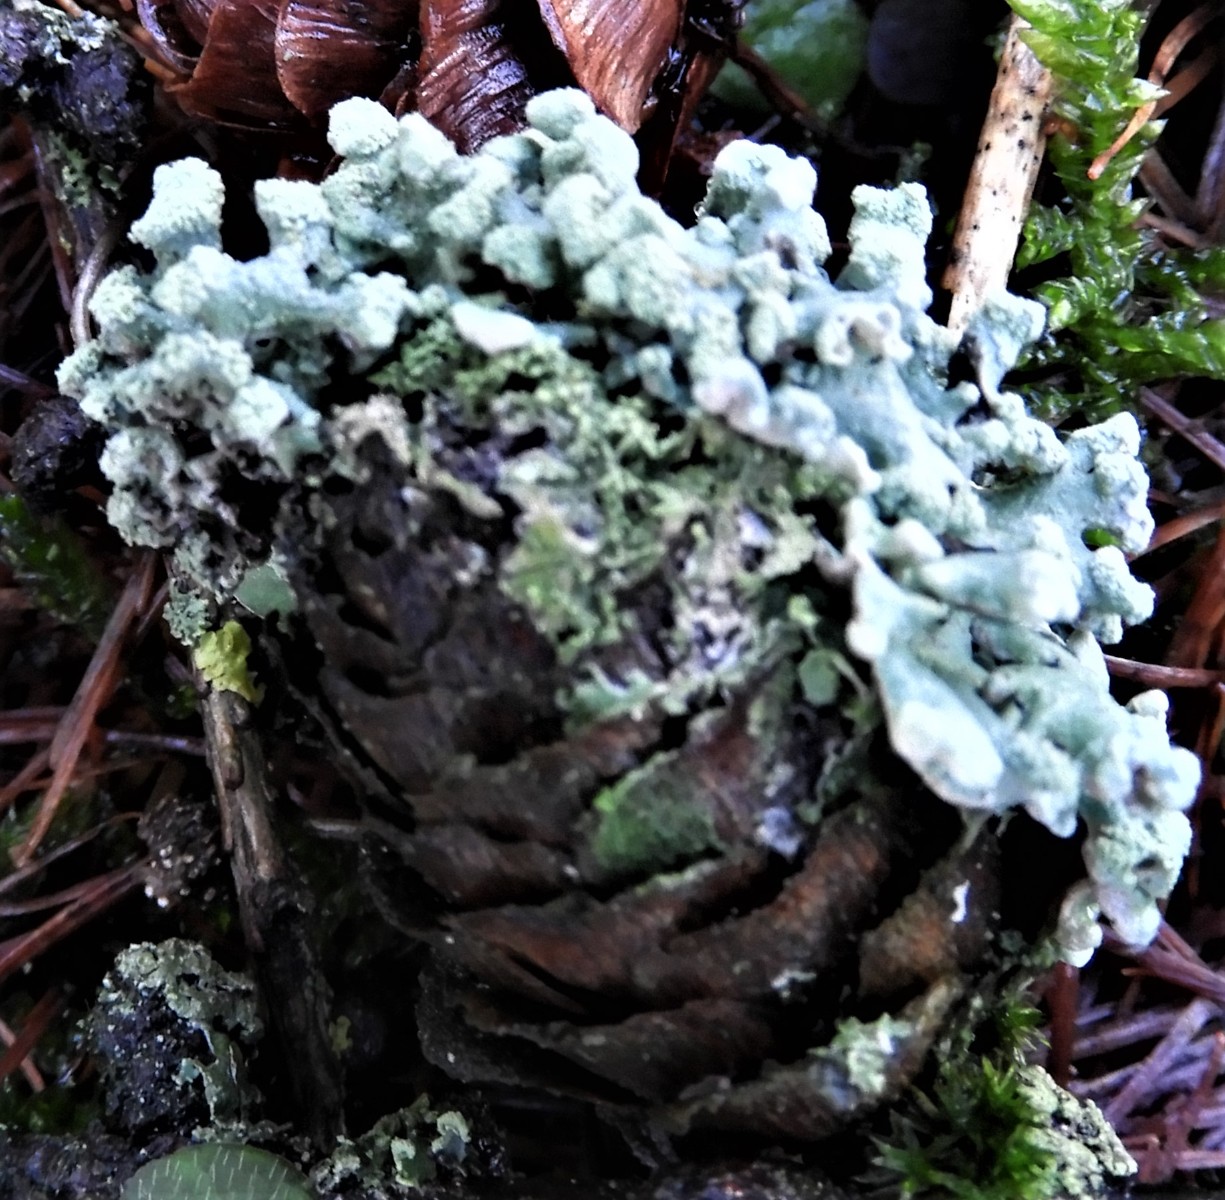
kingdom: Fungi
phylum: Ascomycota
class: Lecanoromycetes
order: Lecanorales
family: Parmeliaceae
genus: Hypogymnia
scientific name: Hypogymnia tubulosa
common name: finger-kvistlav
